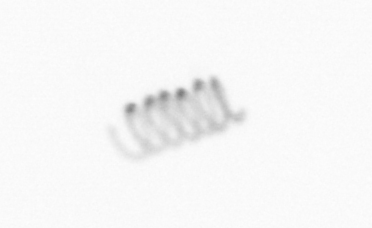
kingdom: Chromista
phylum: Ochrophyta
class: Bacillariophyceae
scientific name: Bacillariophyceae
